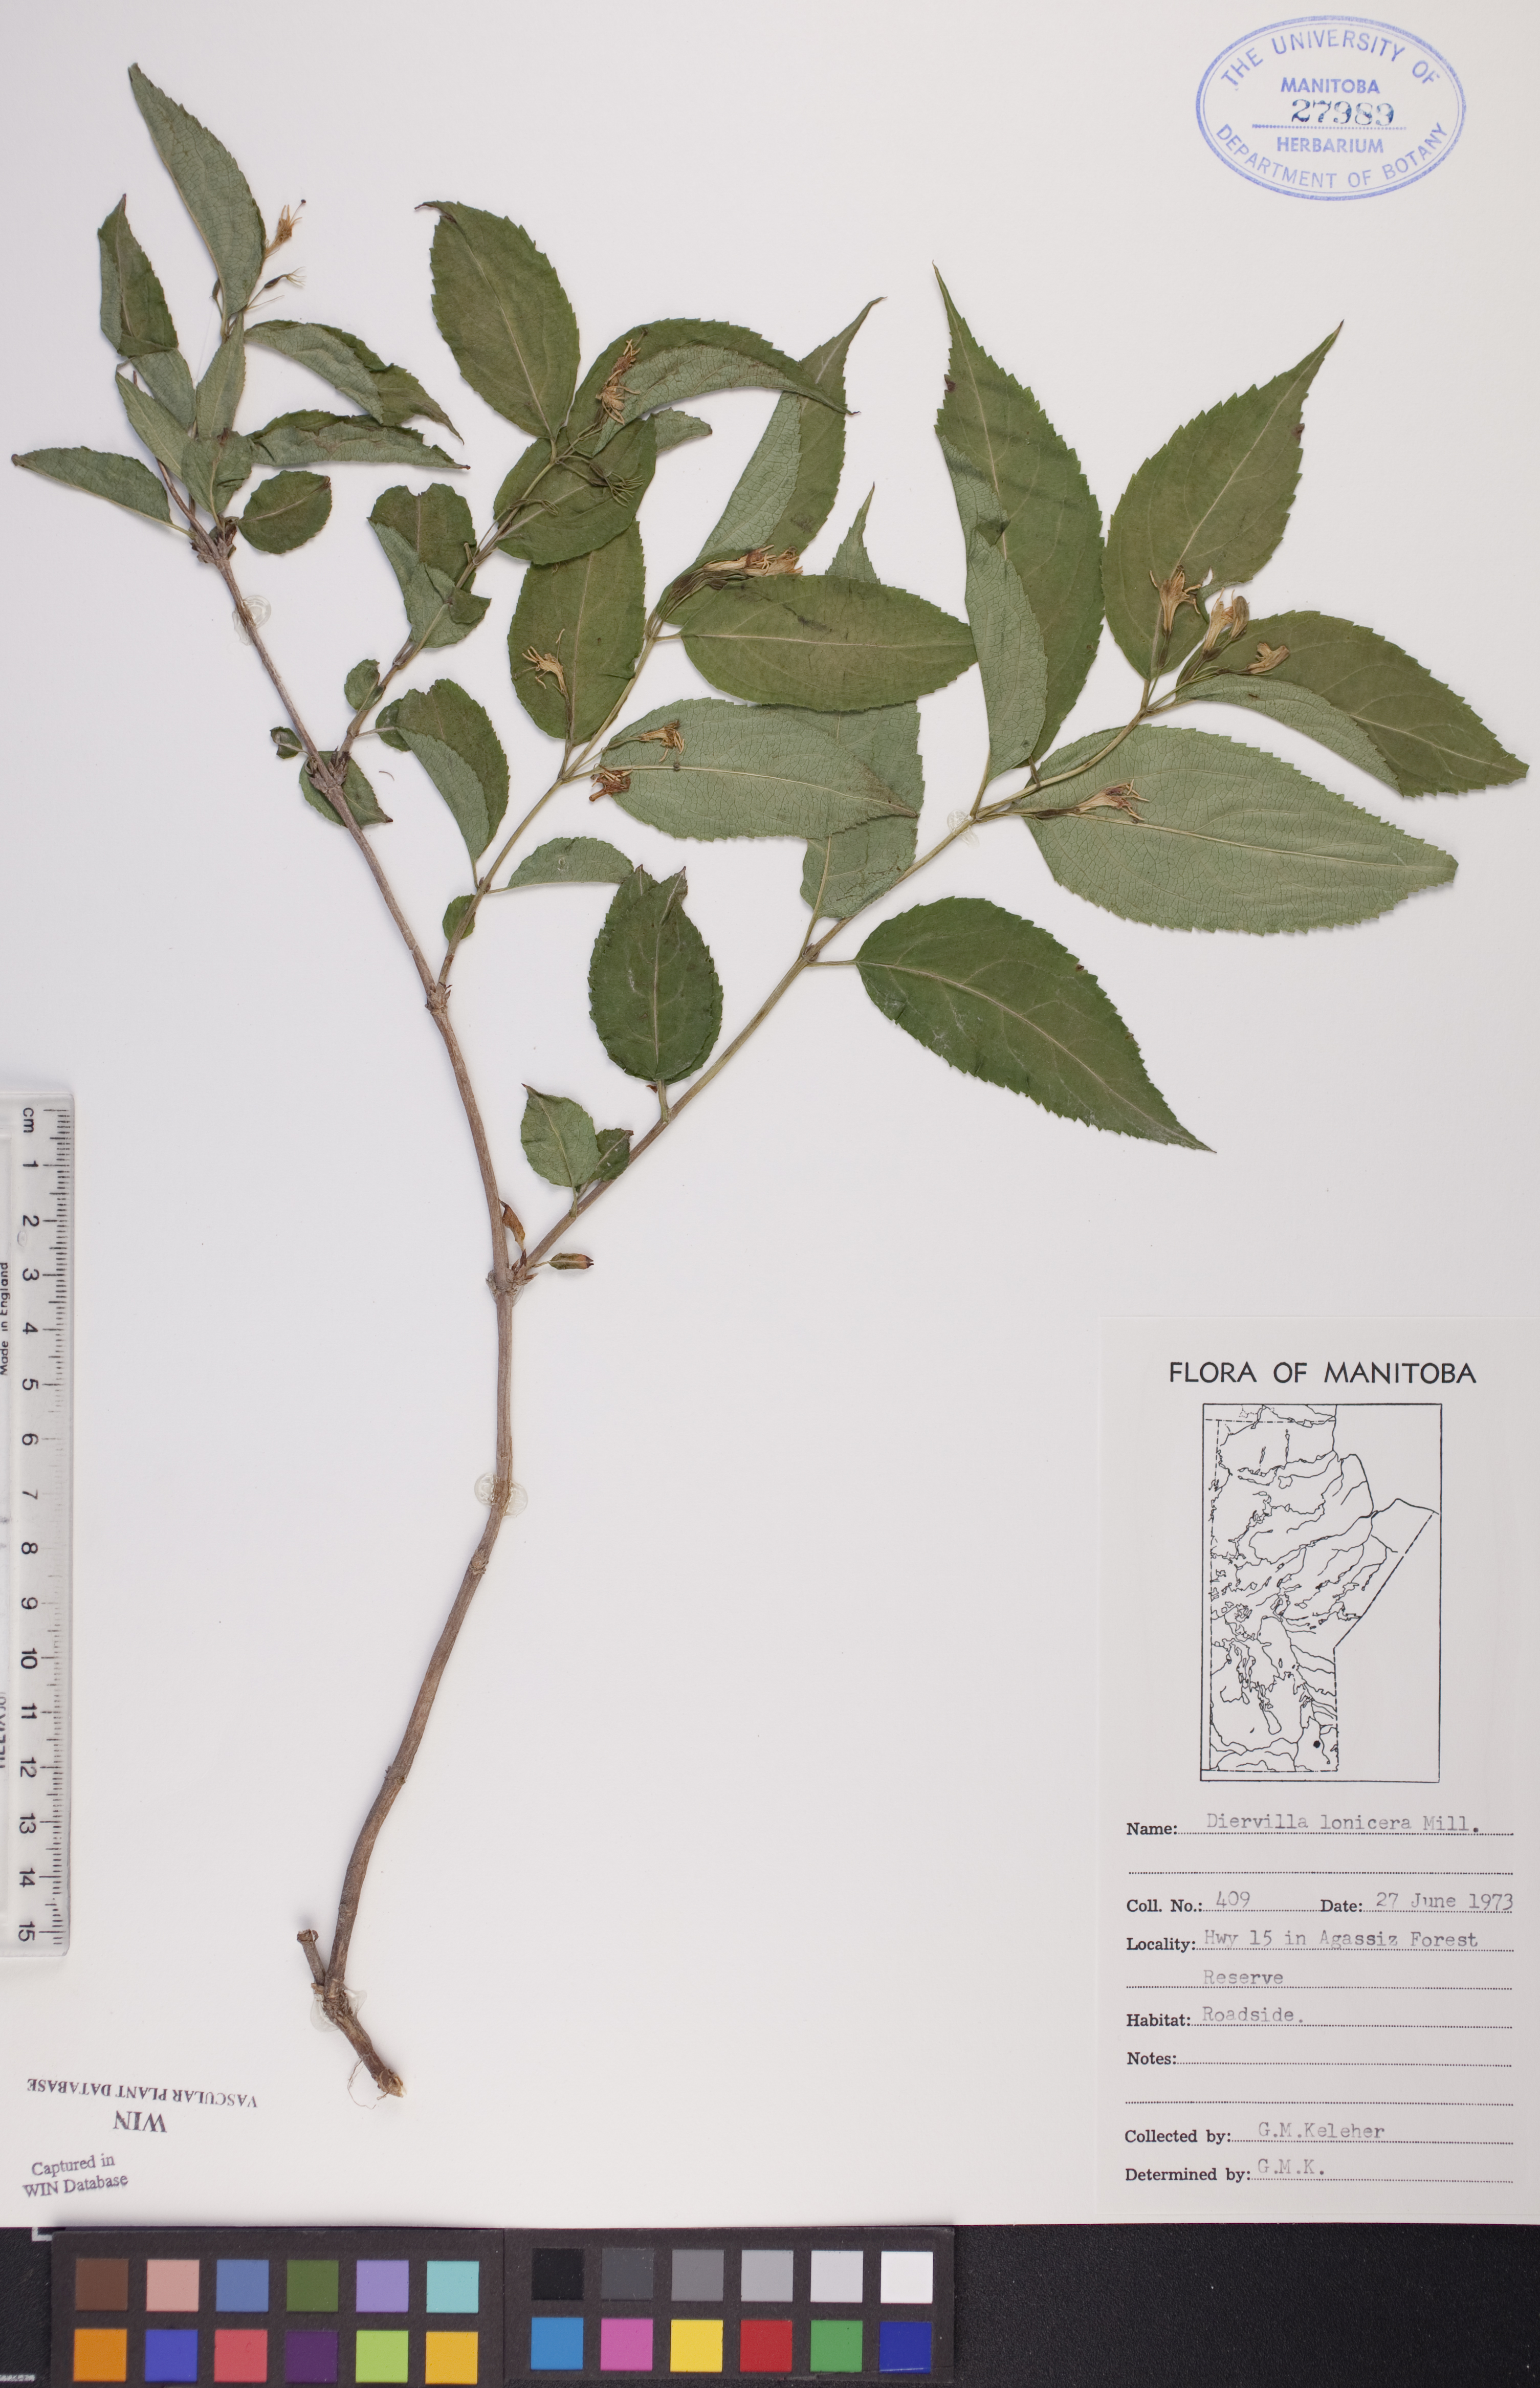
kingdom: Plantae
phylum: Tracheophyta
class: Magnoliopsida
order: Dipsacales
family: Caprifoliaceae
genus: Diervilla
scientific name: Diervilla lonicera
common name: Bush-honeysuckle
